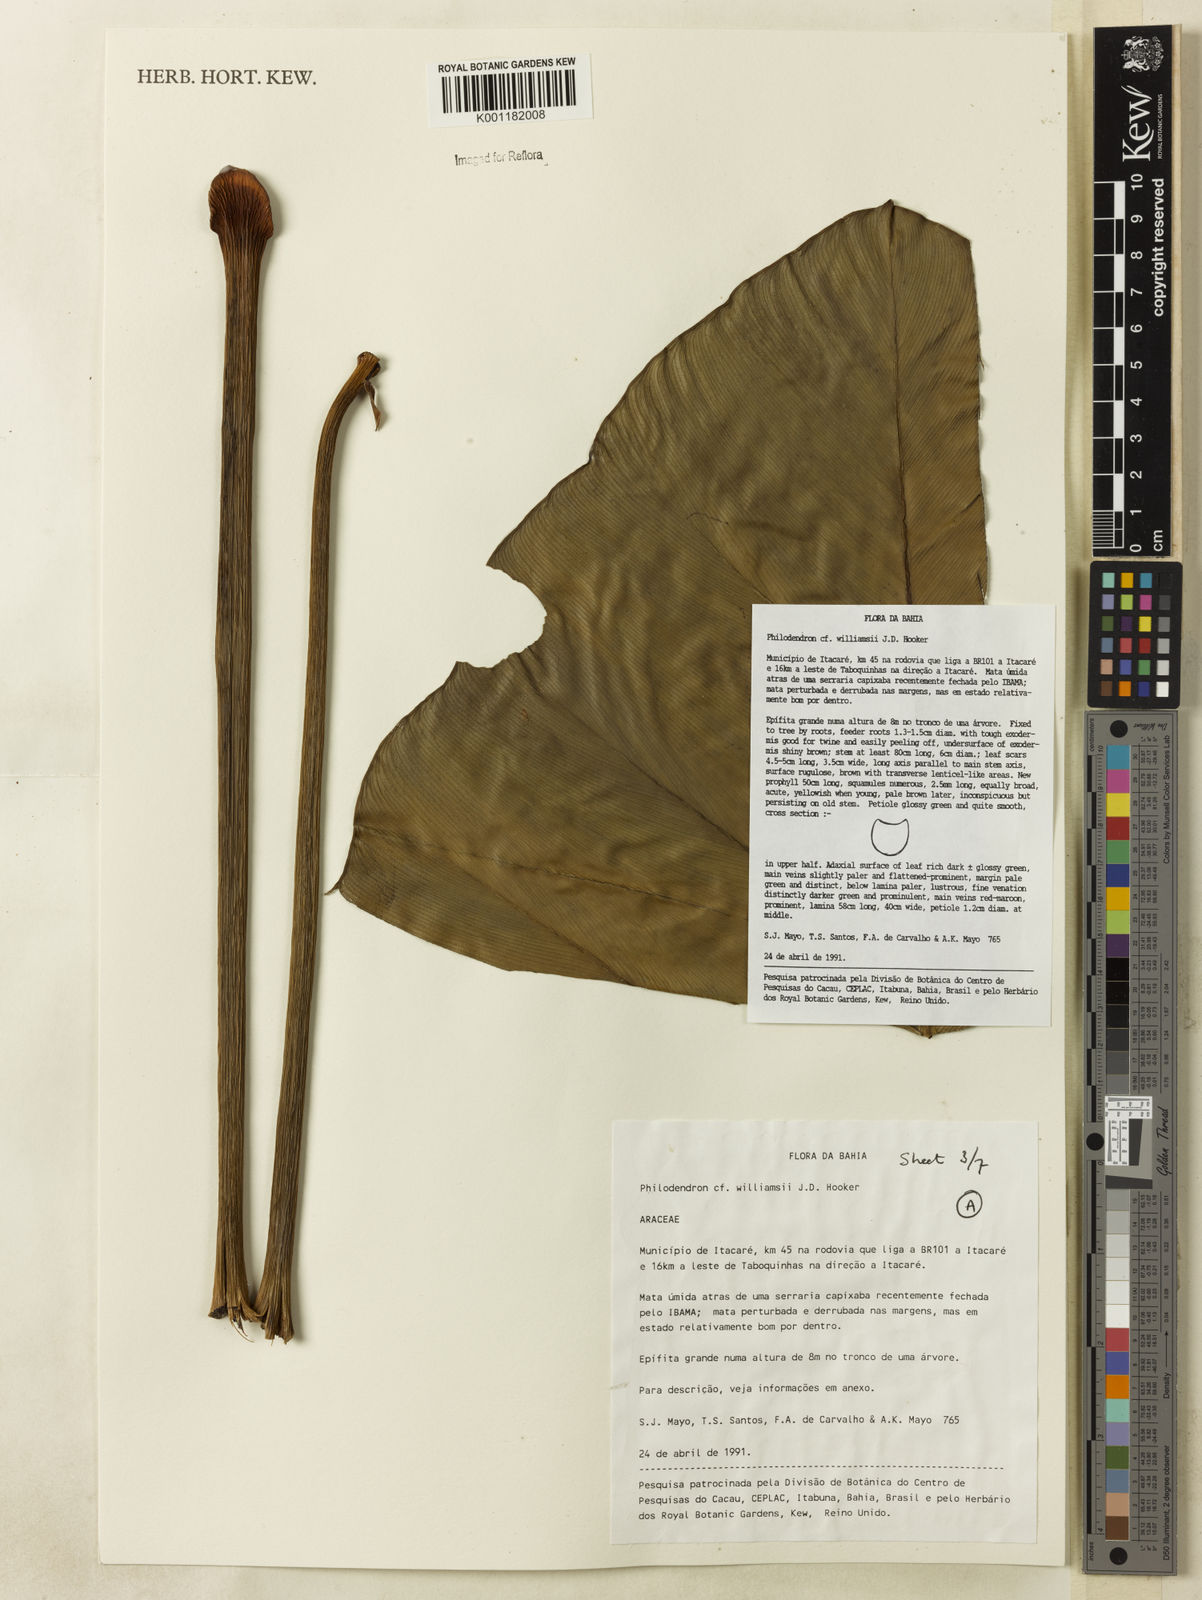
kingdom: Plantae
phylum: Tracheophyta
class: Liliopsida
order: Alismatales
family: Araceae
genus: Thaumatophyllum
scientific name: Thaumatophyllum williamsii
